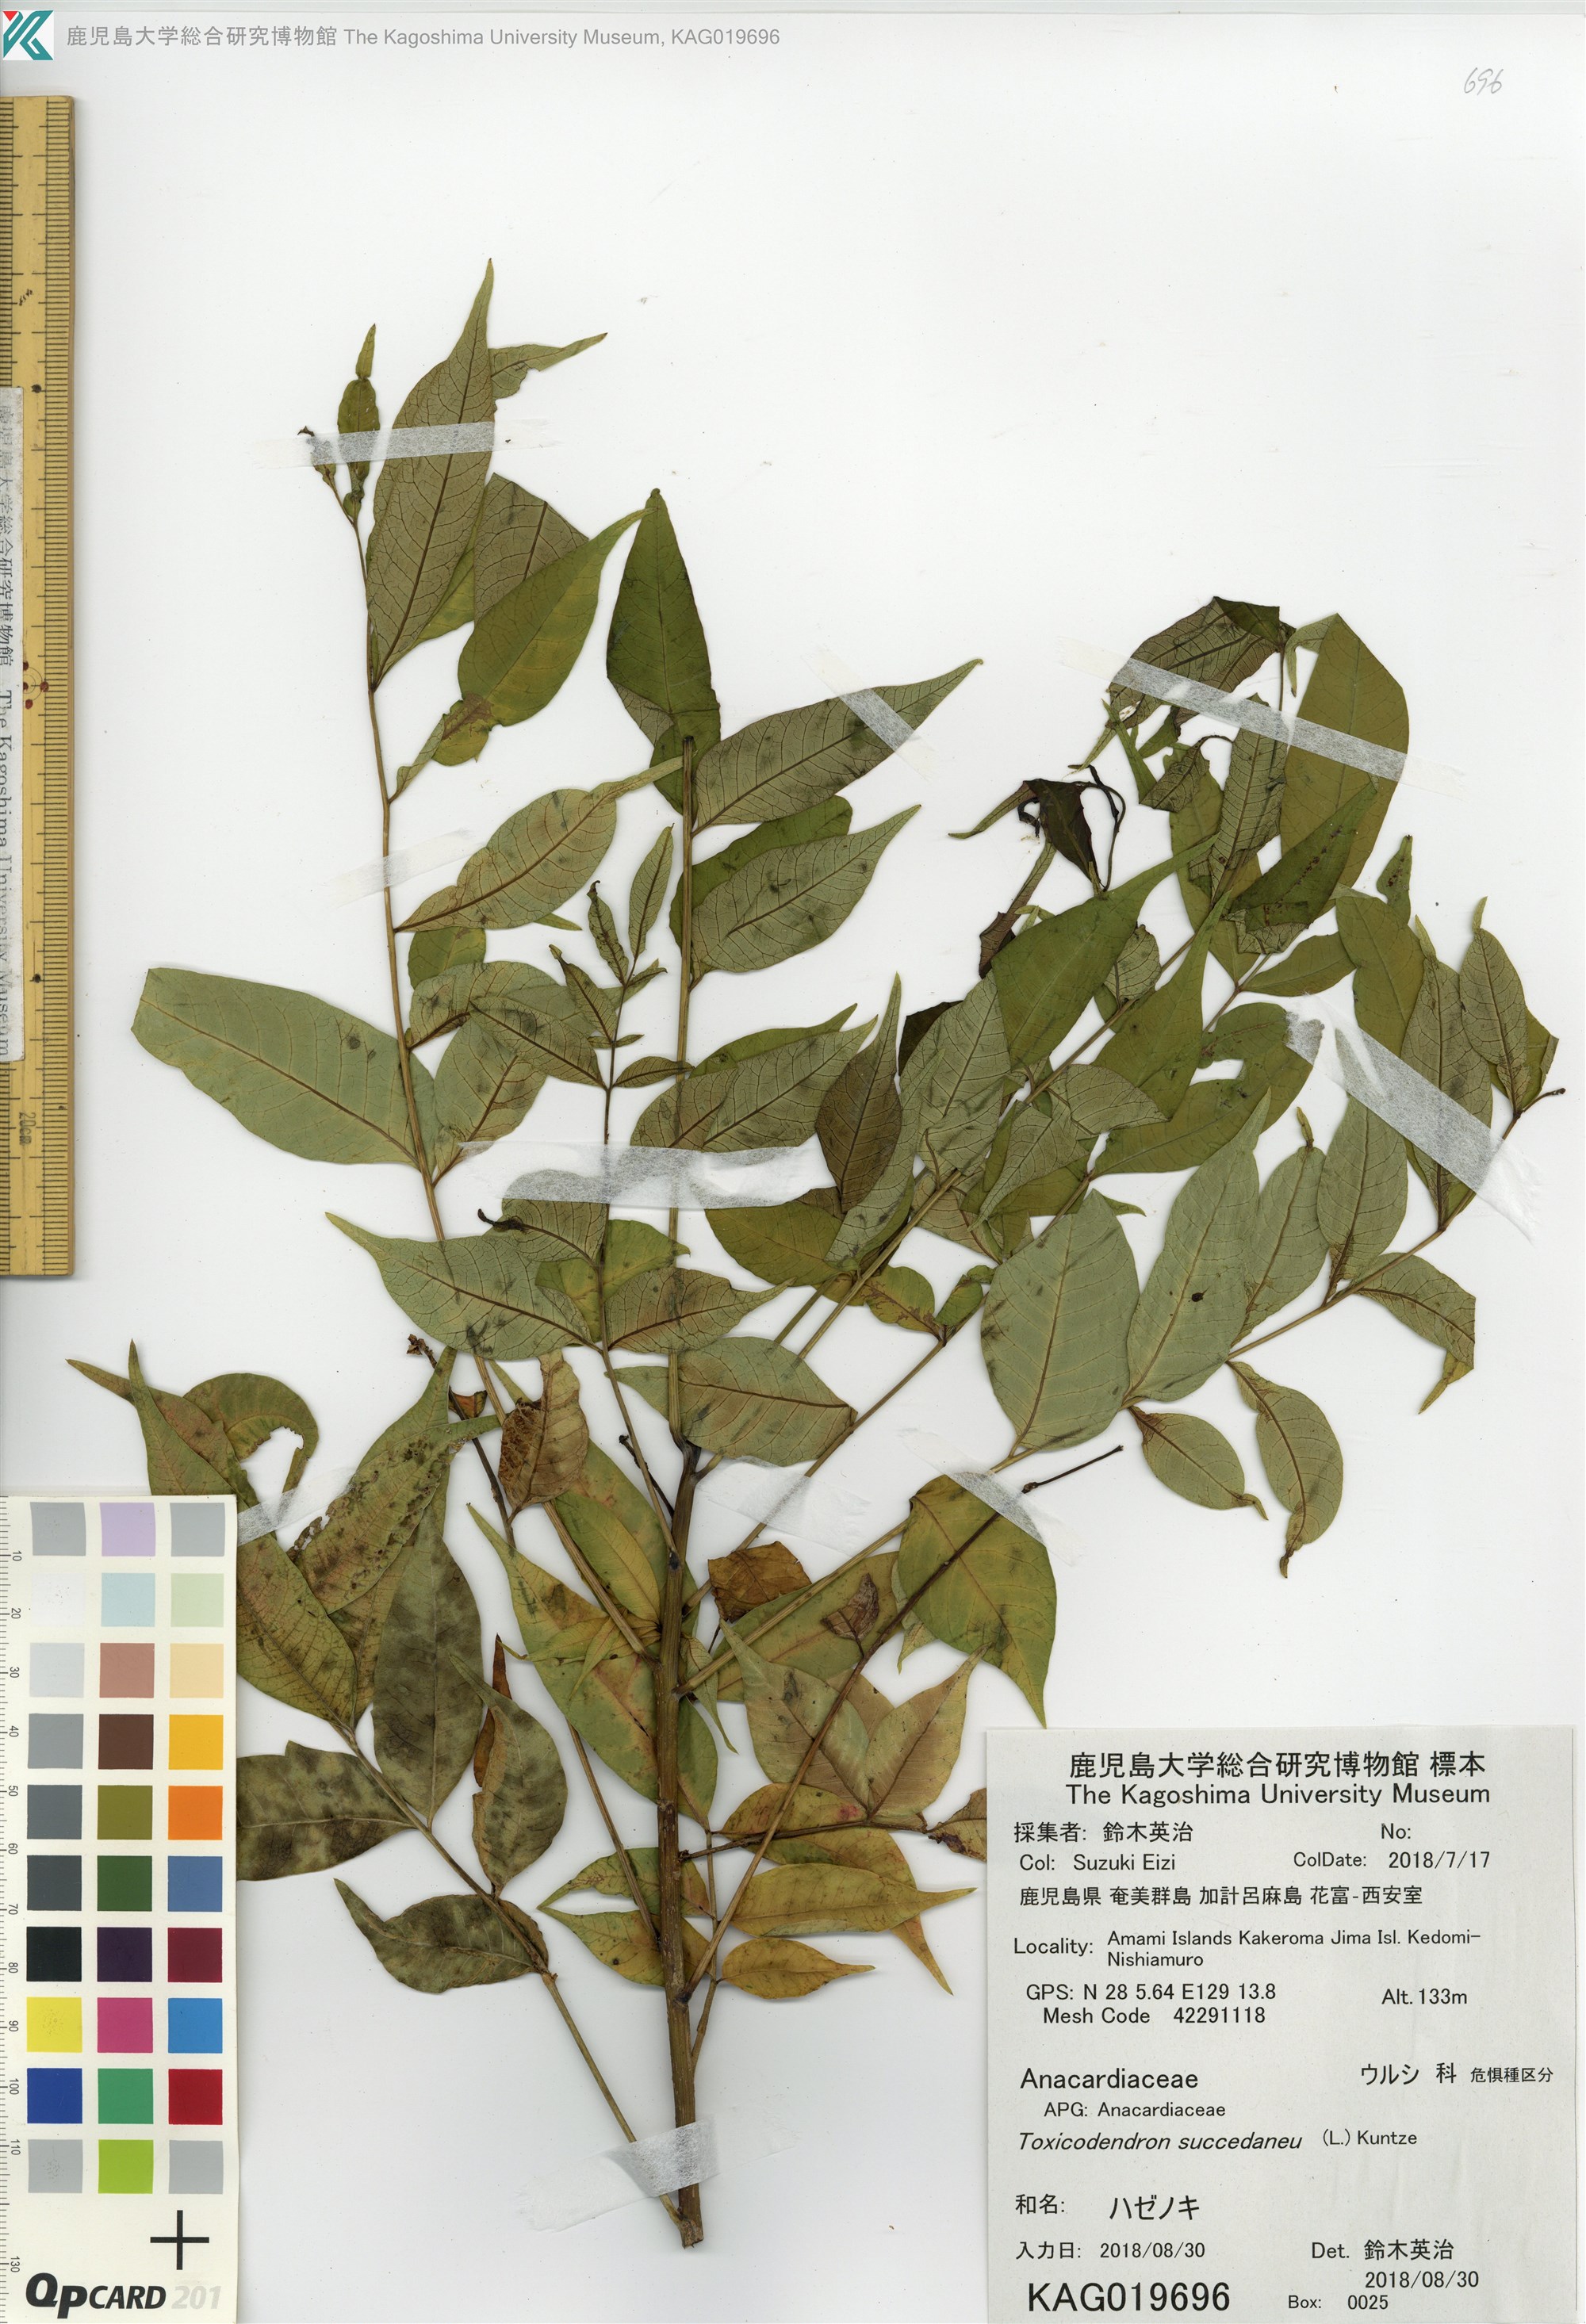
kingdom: Plantae
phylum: Tracheophyta
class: Magnoliopsida
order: Sapindales
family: Anacardiaceae
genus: Toxicodendron
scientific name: Toxicodendron succedaneum
